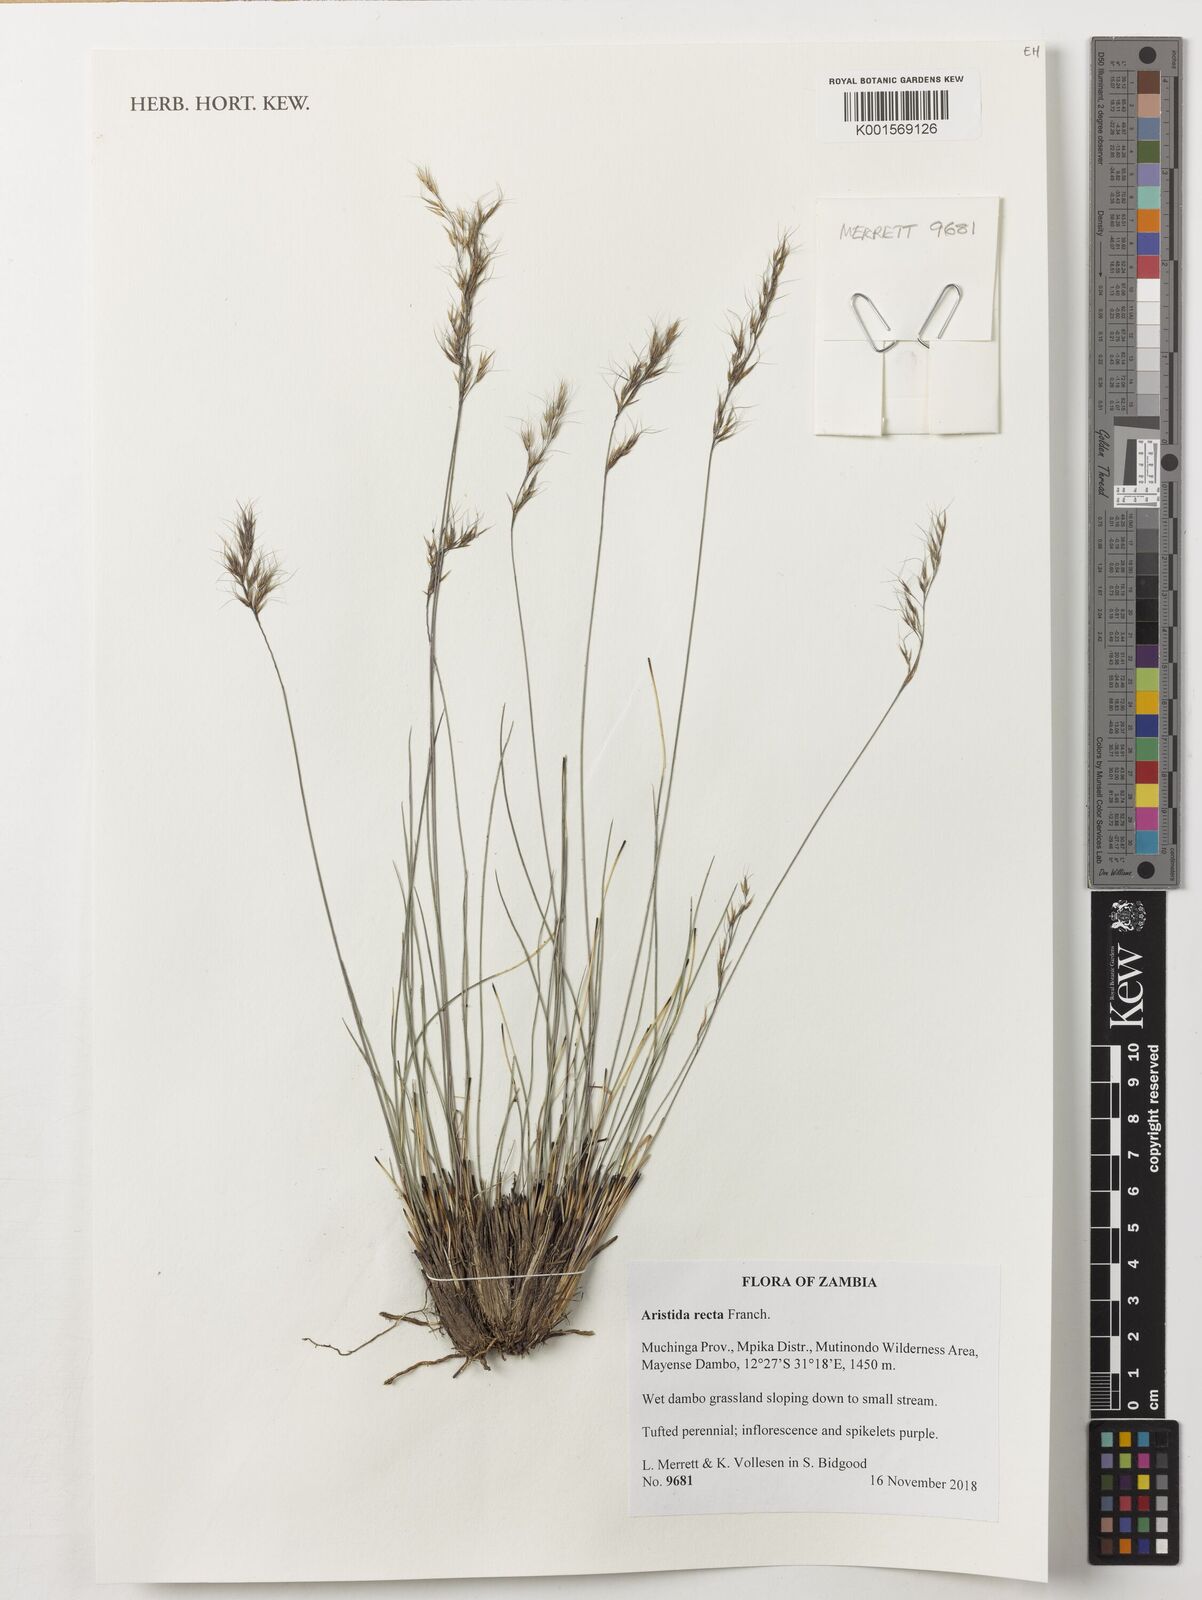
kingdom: Plantae
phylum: Tracheophyta
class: Liliopsida
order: Poales
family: Poaceae
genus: Aristida
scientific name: Aristida recta
